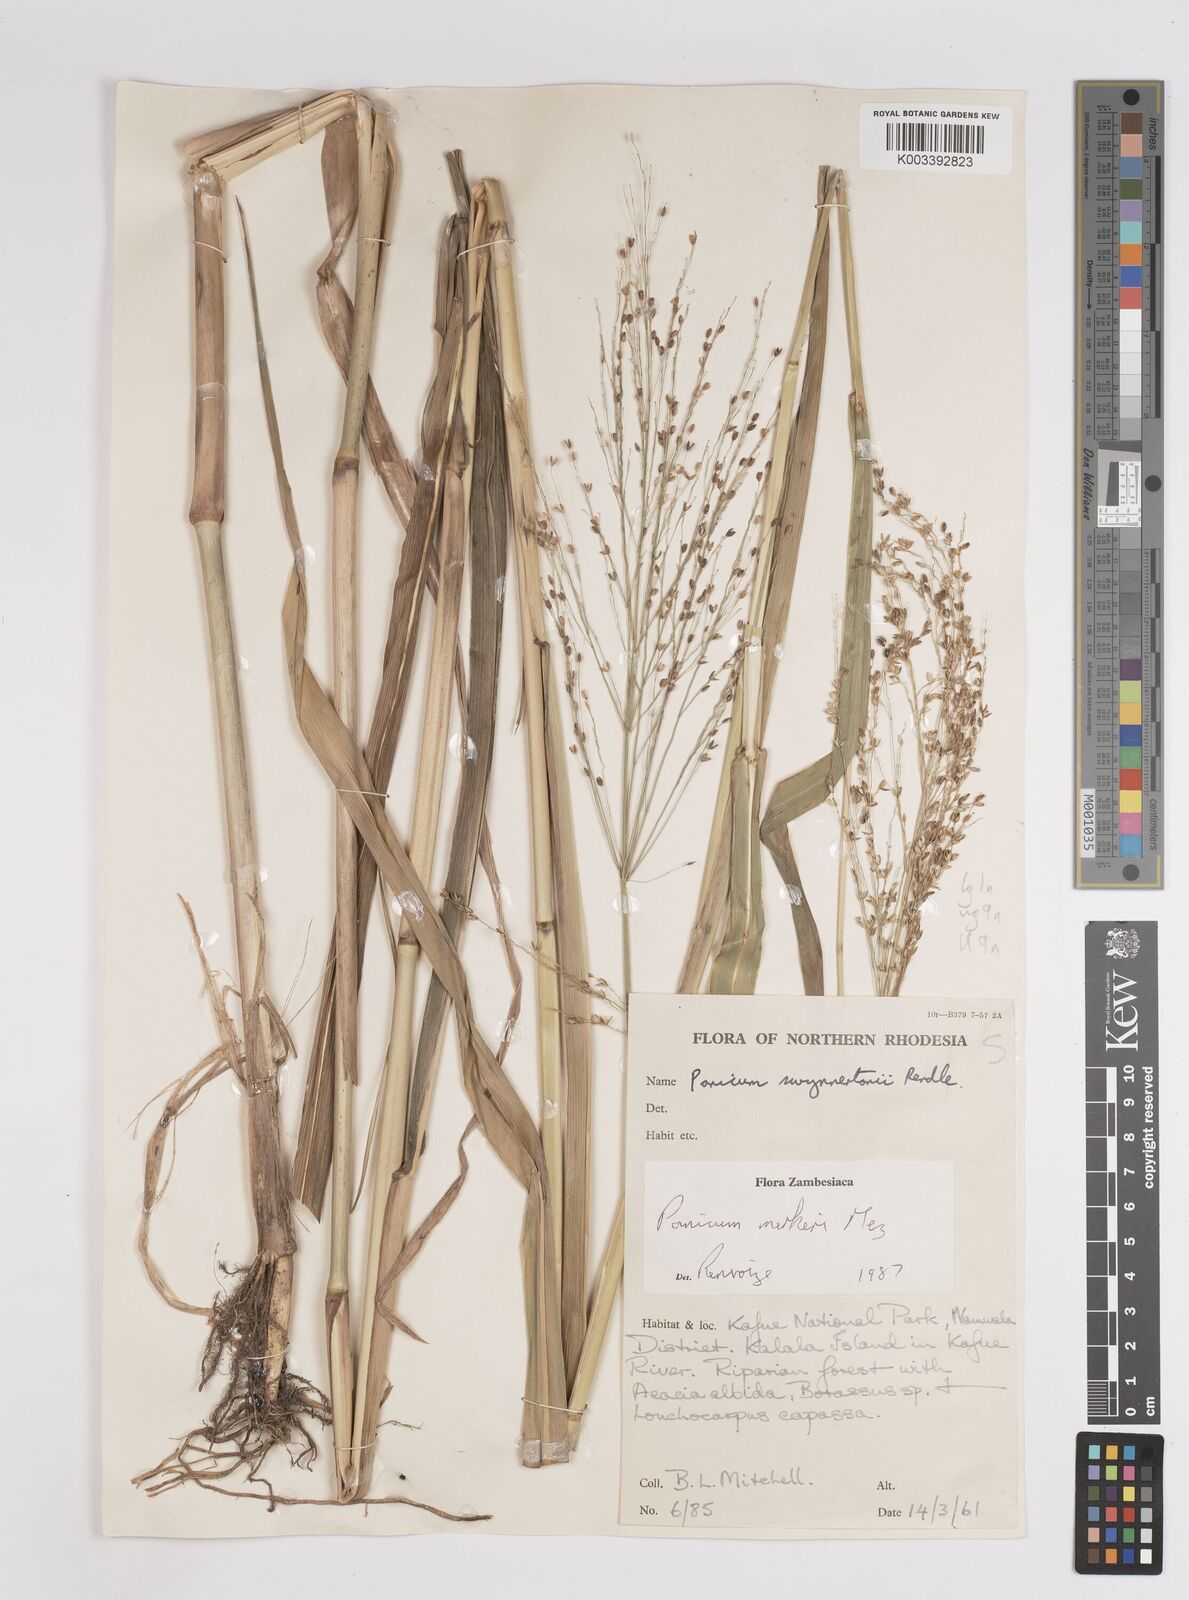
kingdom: Plantae
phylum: Tracheophyta
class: Liliopsida
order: Poales
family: Poaceae
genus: Panicum
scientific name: Panicum merkeri
